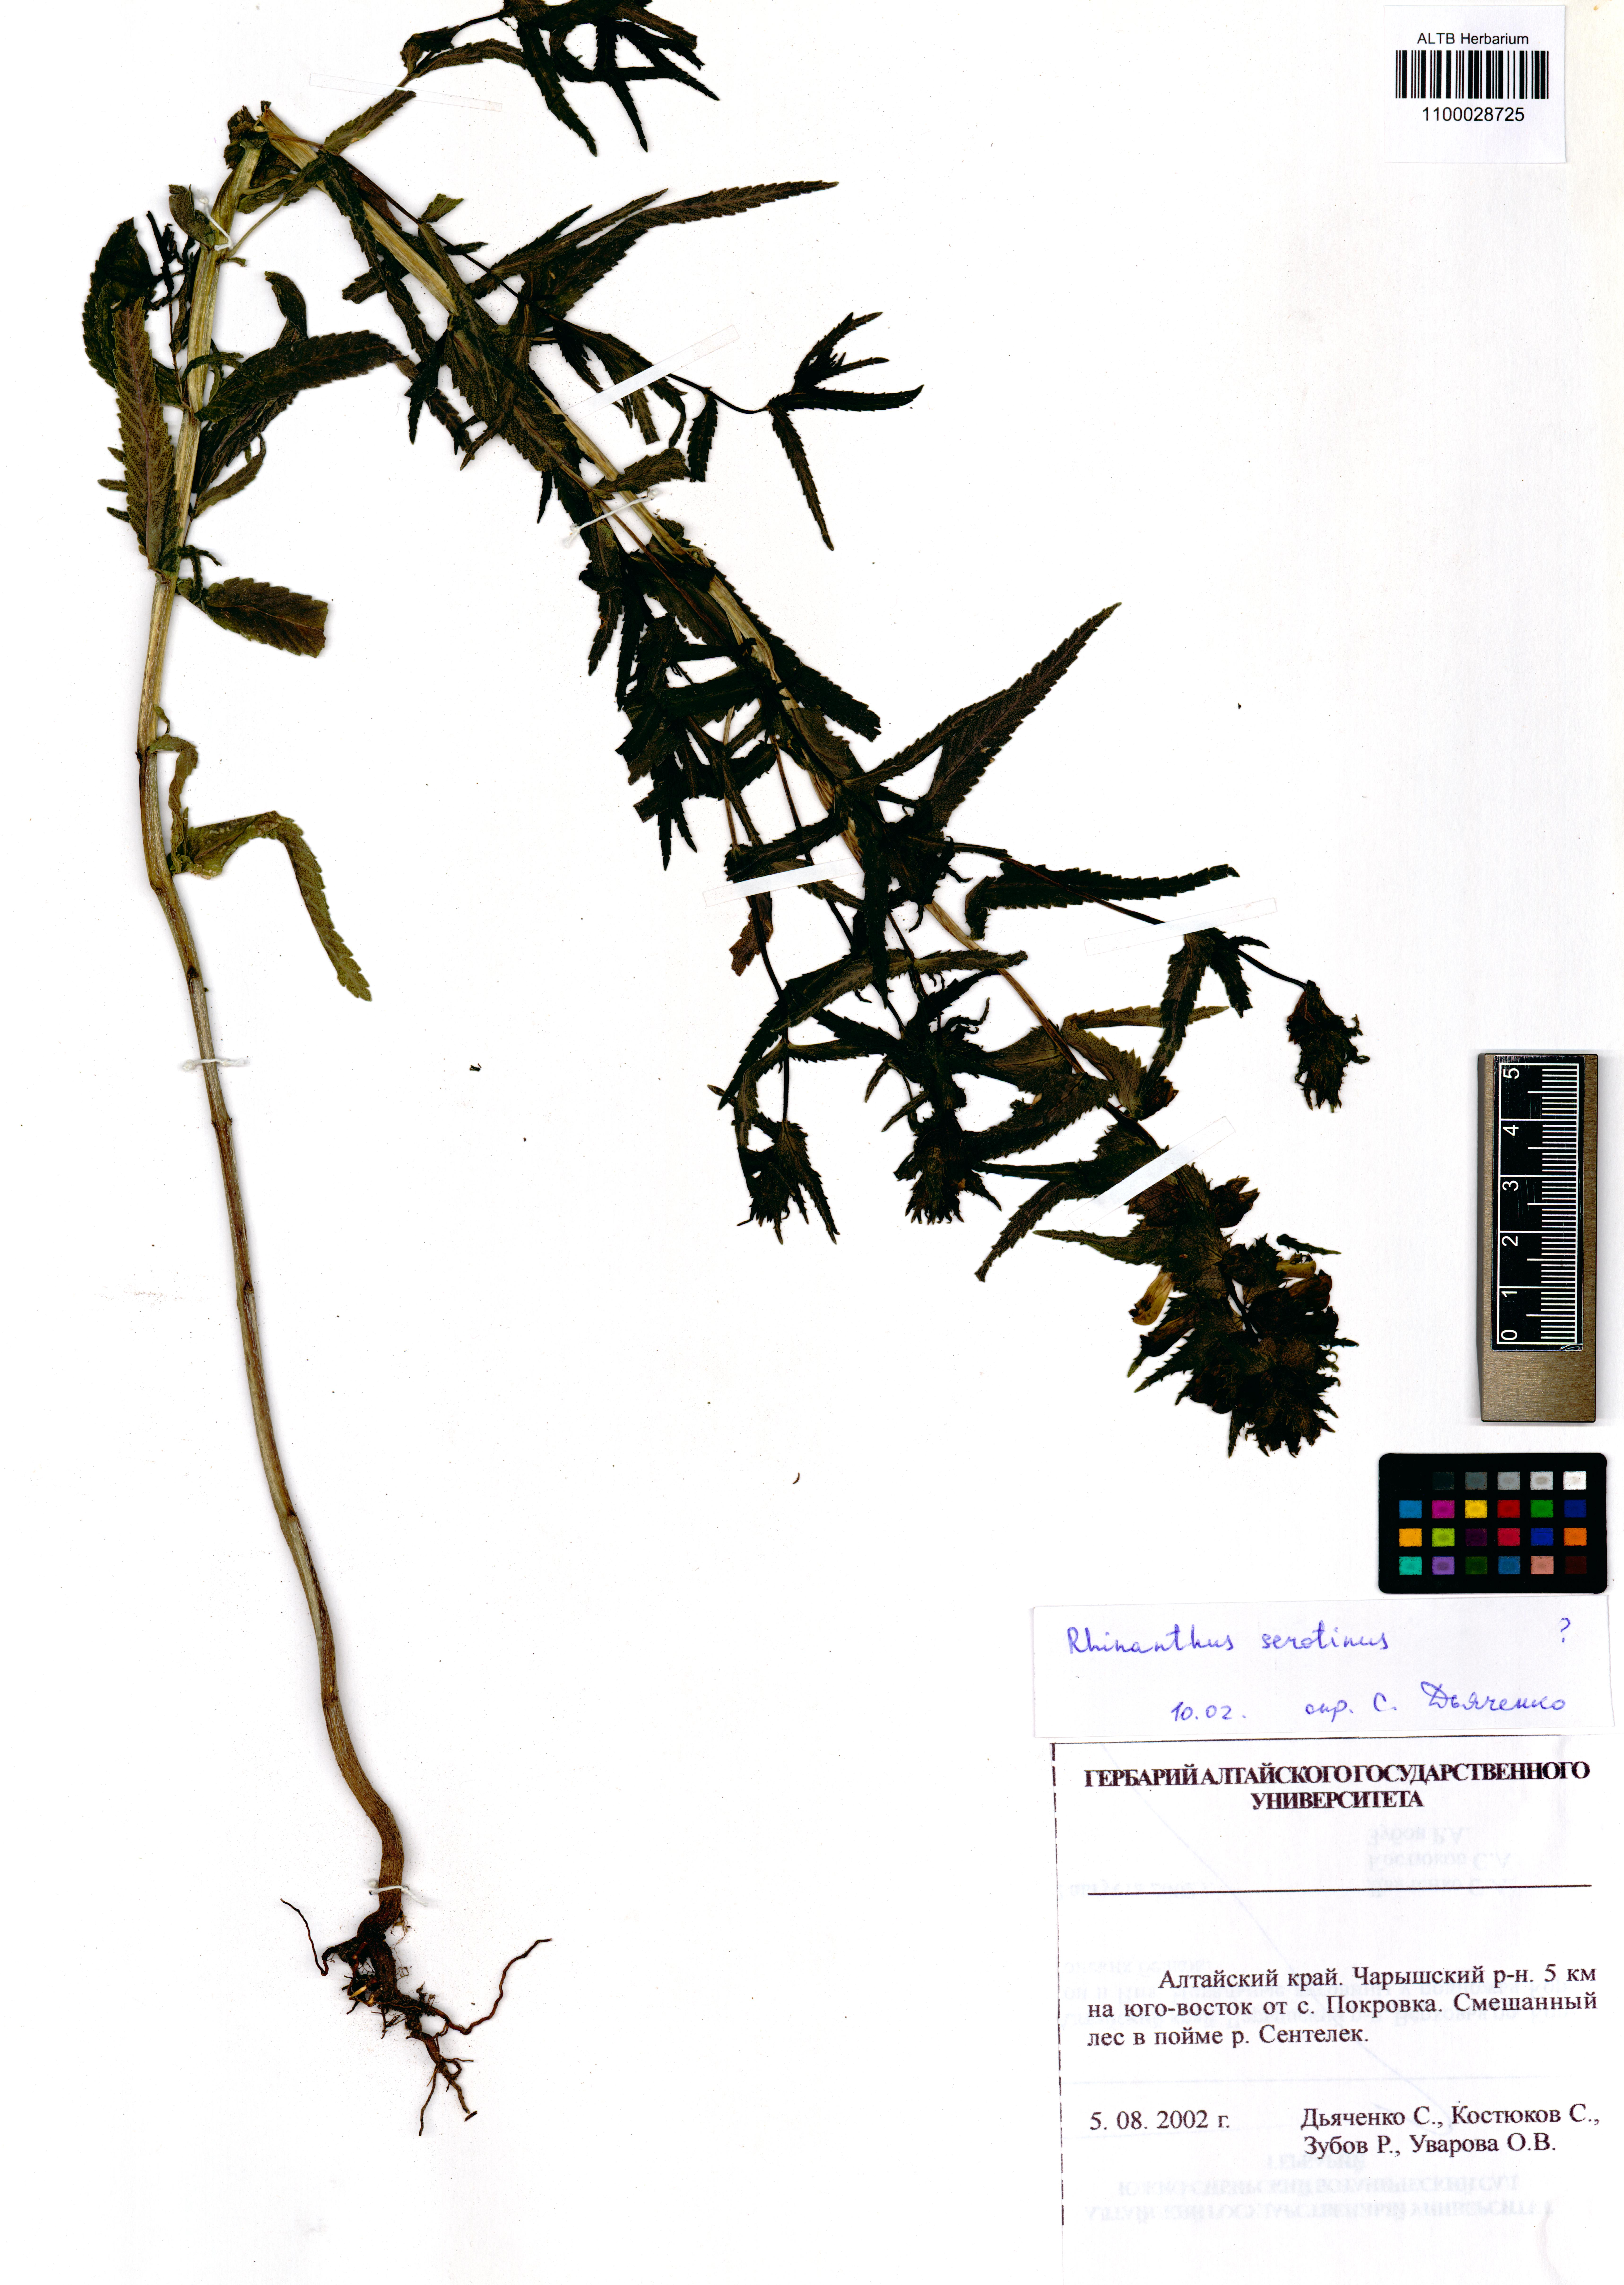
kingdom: Plantae
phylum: Tracheophyta
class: Magnoliopsida
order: Lamiales
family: Orobanchaceae
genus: Rhinanthus
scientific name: Rhinanthus
